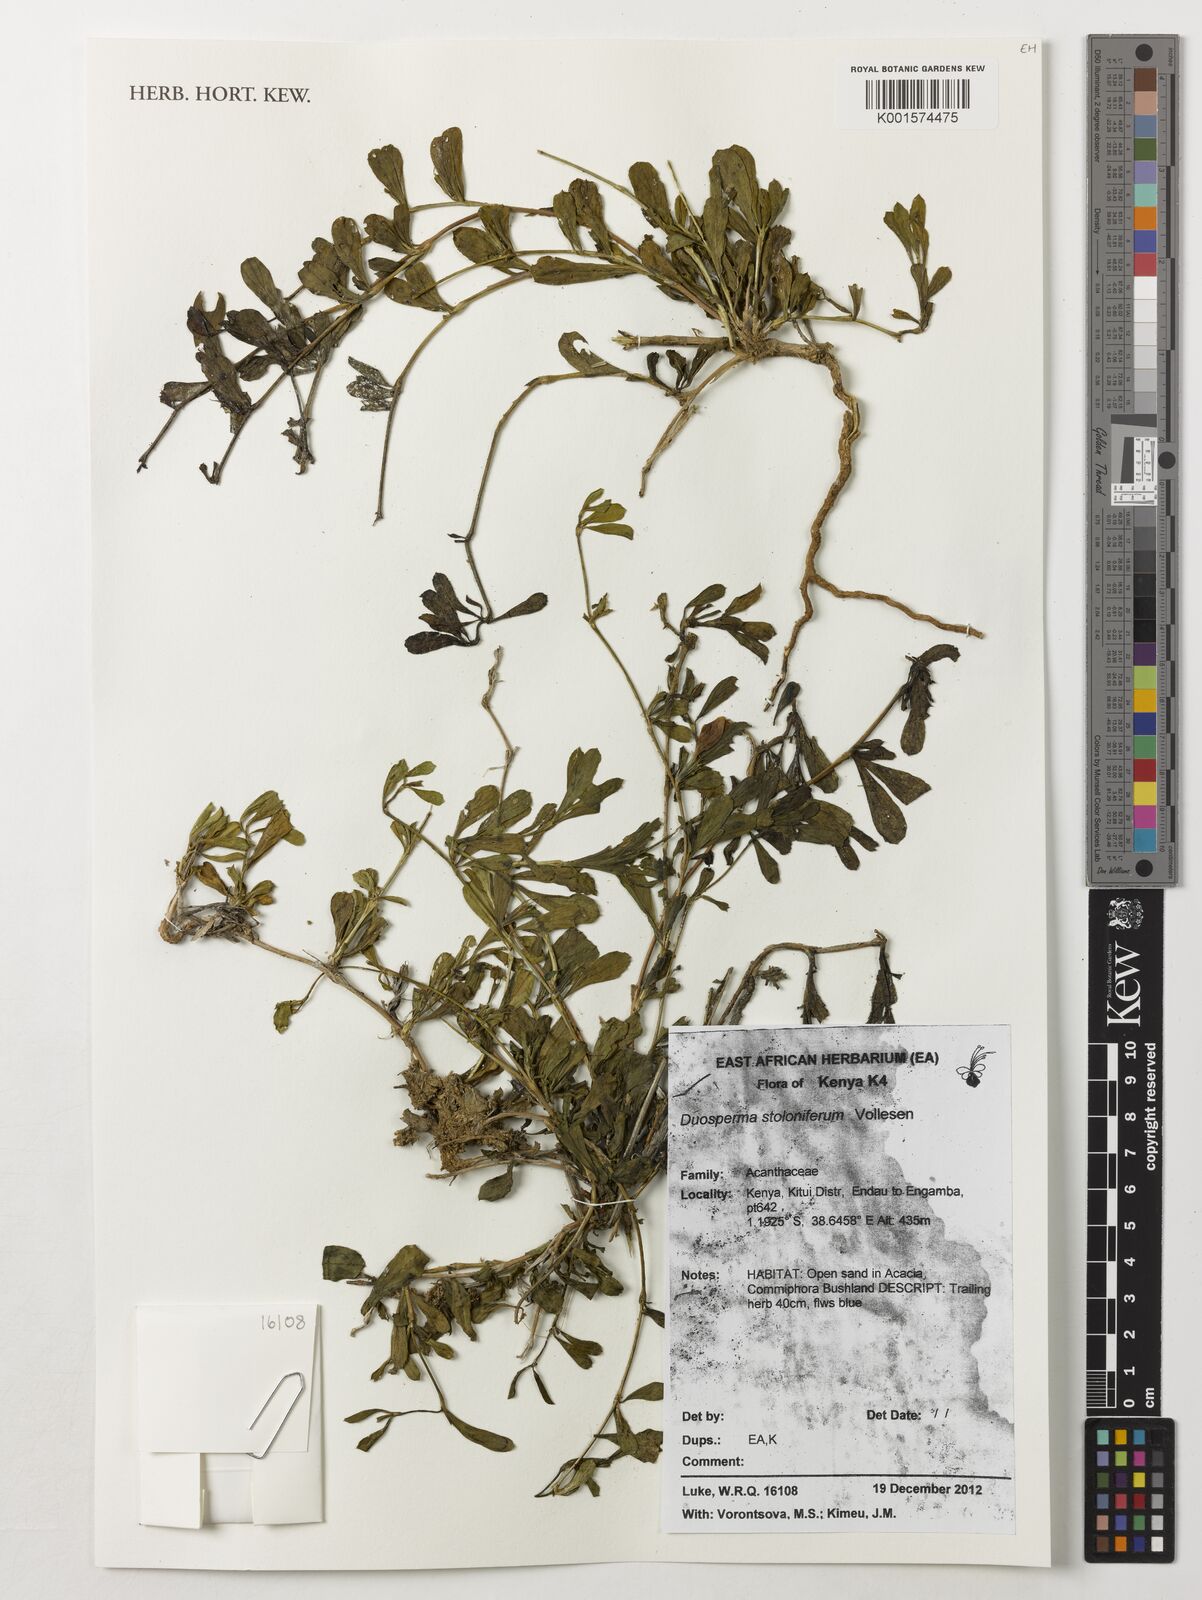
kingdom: Plantae
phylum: Tracheophyta
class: Magnoliopsida
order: Lamiales
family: Acanthaceae
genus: Duosperma
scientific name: Duosperma stoloniferum
